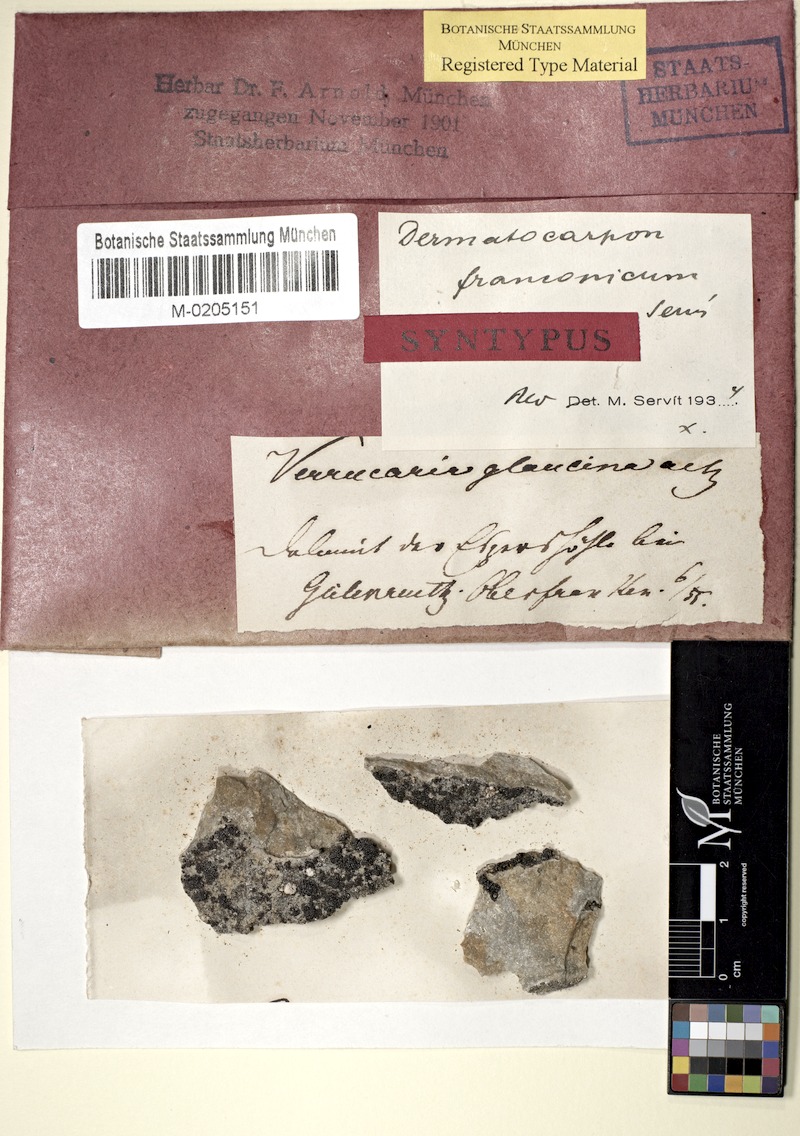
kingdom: Fungi
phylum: Ascomycota
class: Eurotiomycetes
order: Verrucariales
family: Verrucariaceae
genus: Dermatocarpon
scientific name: Dermatocarpon
